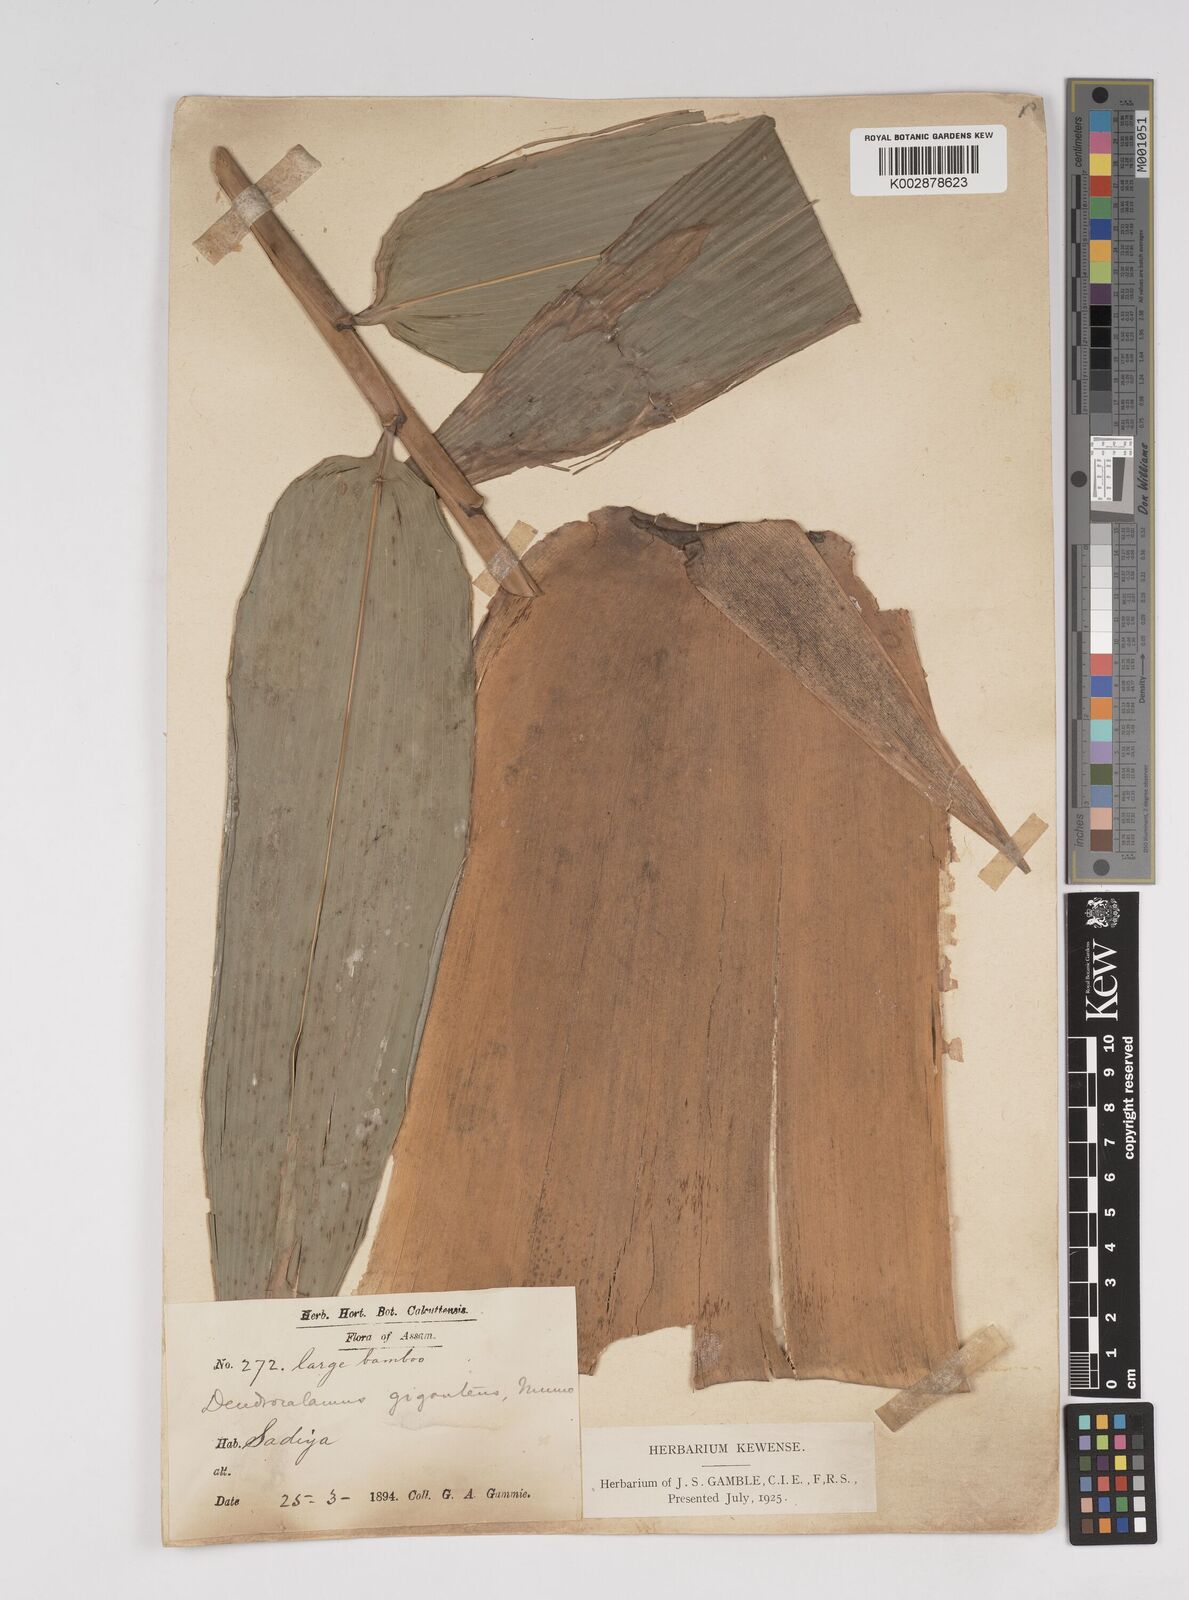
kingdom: Plantae
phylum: Tracheophyta
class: Liliopsida
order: Poales
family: Poaceae
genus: Dendrocalamus
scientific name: Dendrocalamus giganteus
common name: Giant bamboo
